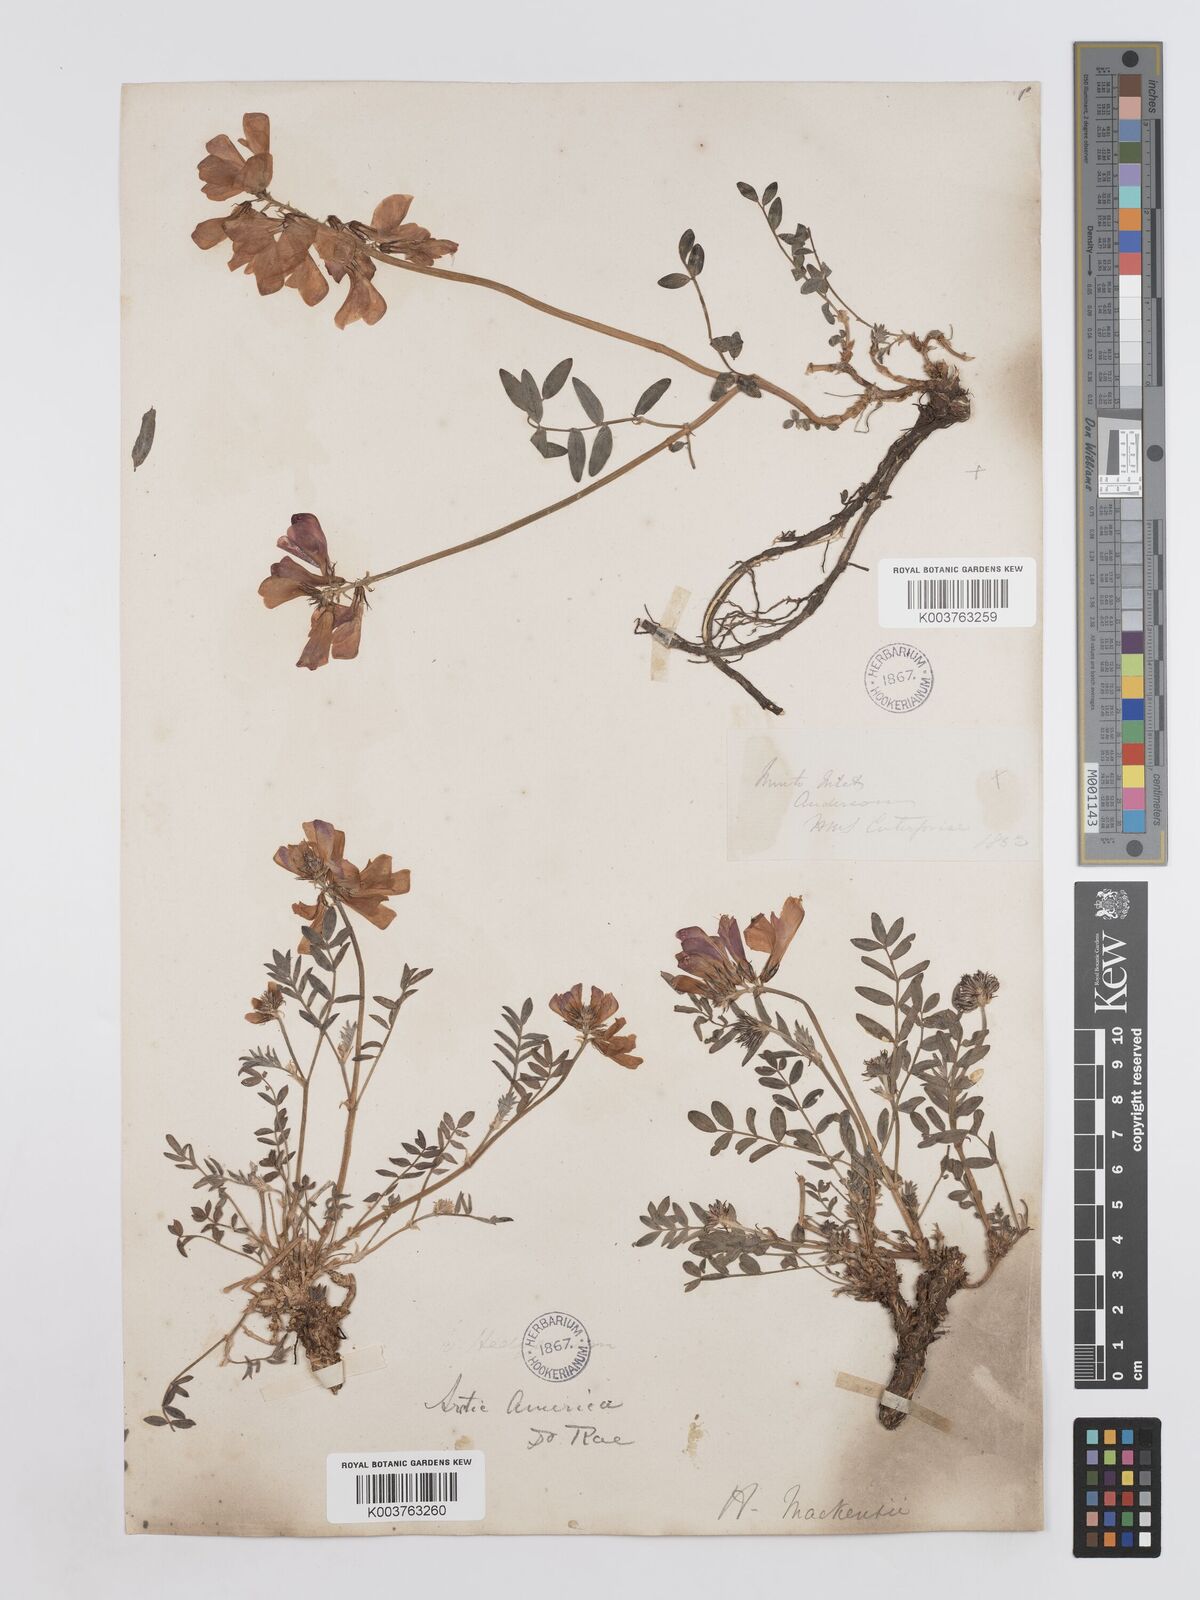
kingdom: Plantae
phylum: Tracheophyta
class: Magnoliopsida
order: Fabales
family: Fabaceae
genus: Hedysarum
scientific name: Hedysarum boreale
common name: Northern sweet-vetch
